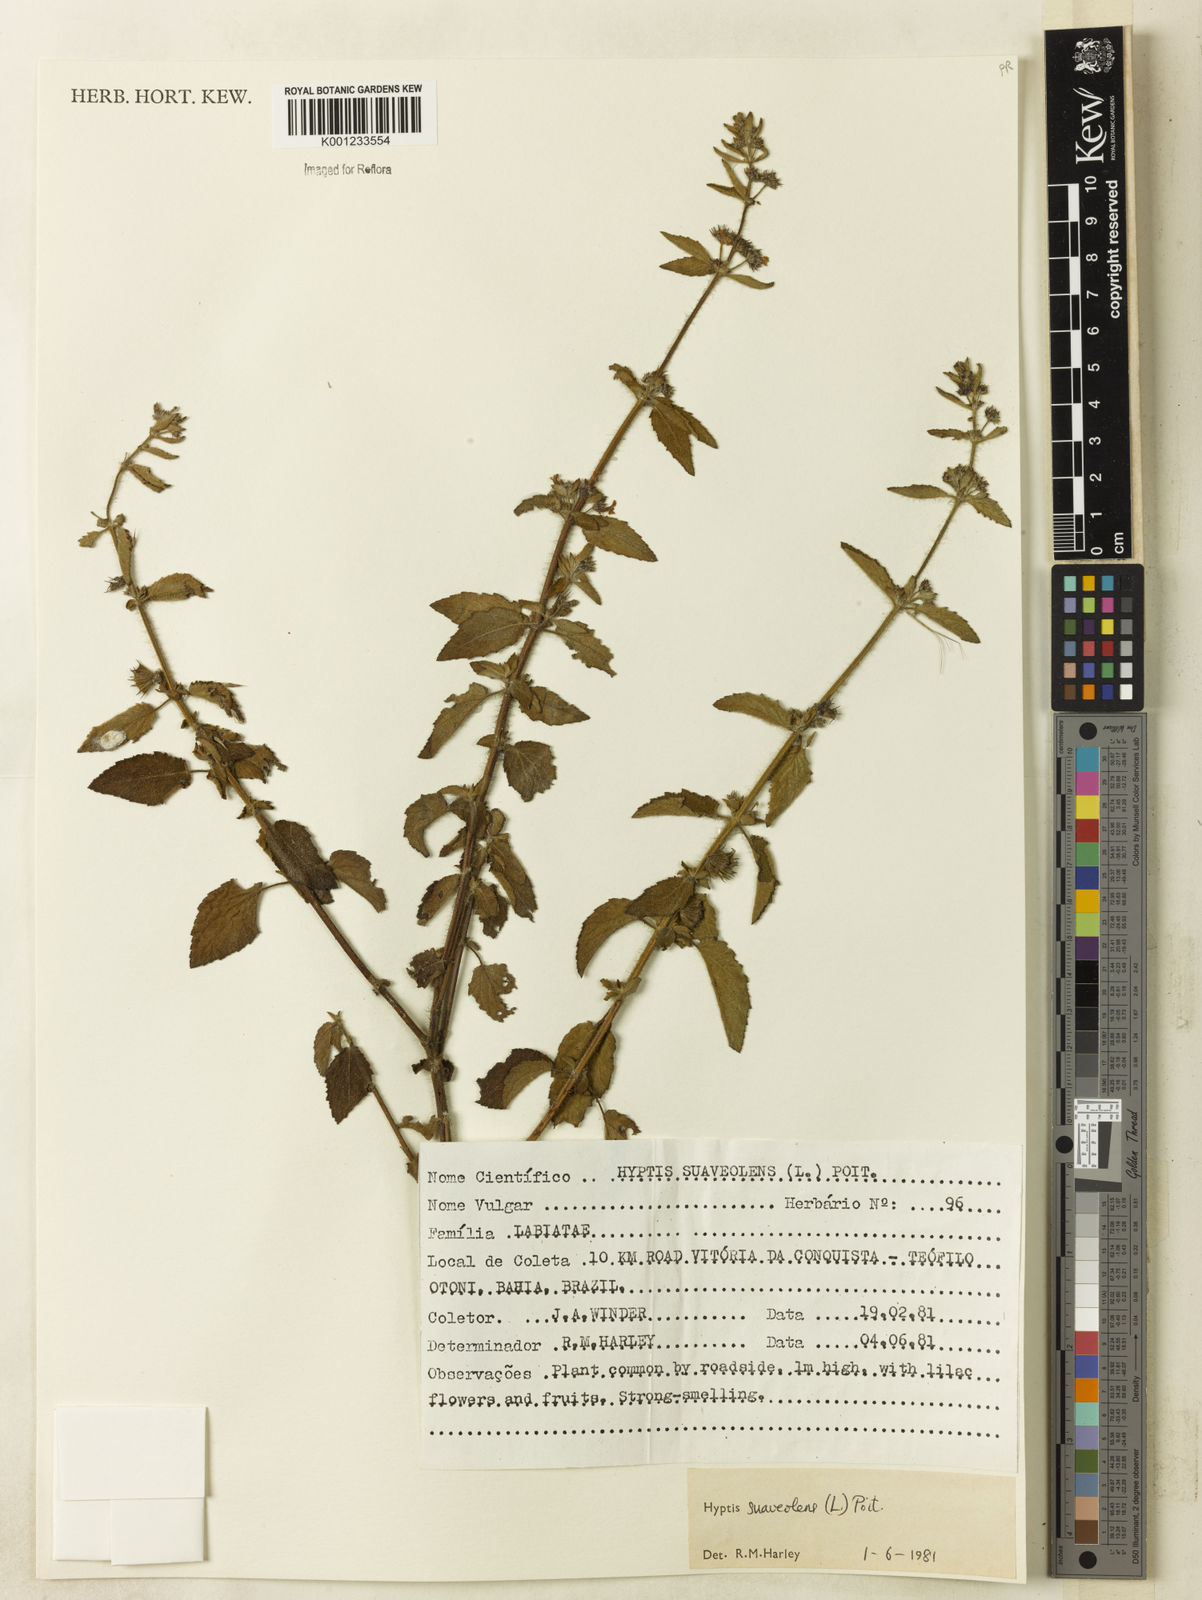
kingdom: Plantae
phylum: Tracheophyta
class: Magnoliopsida
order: Lamiales
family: Lamiaceae
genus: Mesosphaerum
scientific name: Mesosphaerum suaveolens
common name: Pignut
